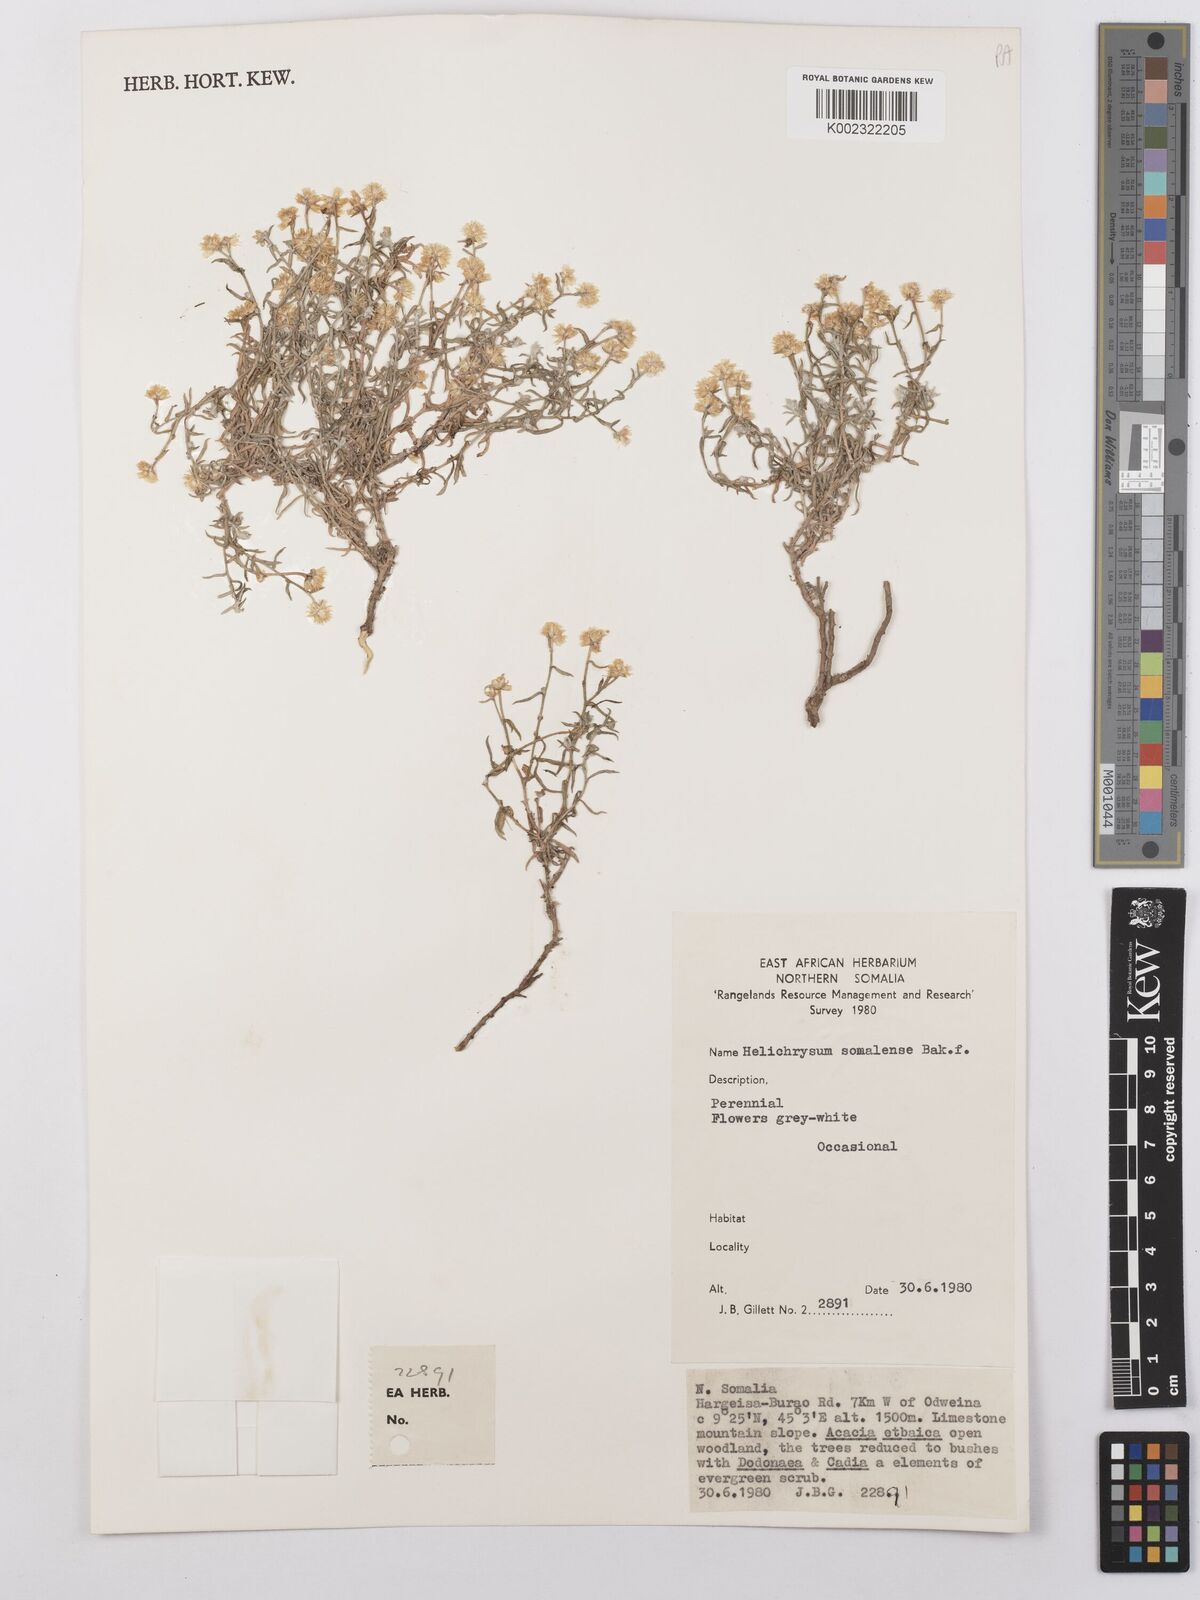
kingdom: Plantae
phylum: Tracheophyta
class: Magnoliopsida
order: Asterales
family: Asteraceae
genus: Helichrysum
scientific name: Helichrysum somalense
